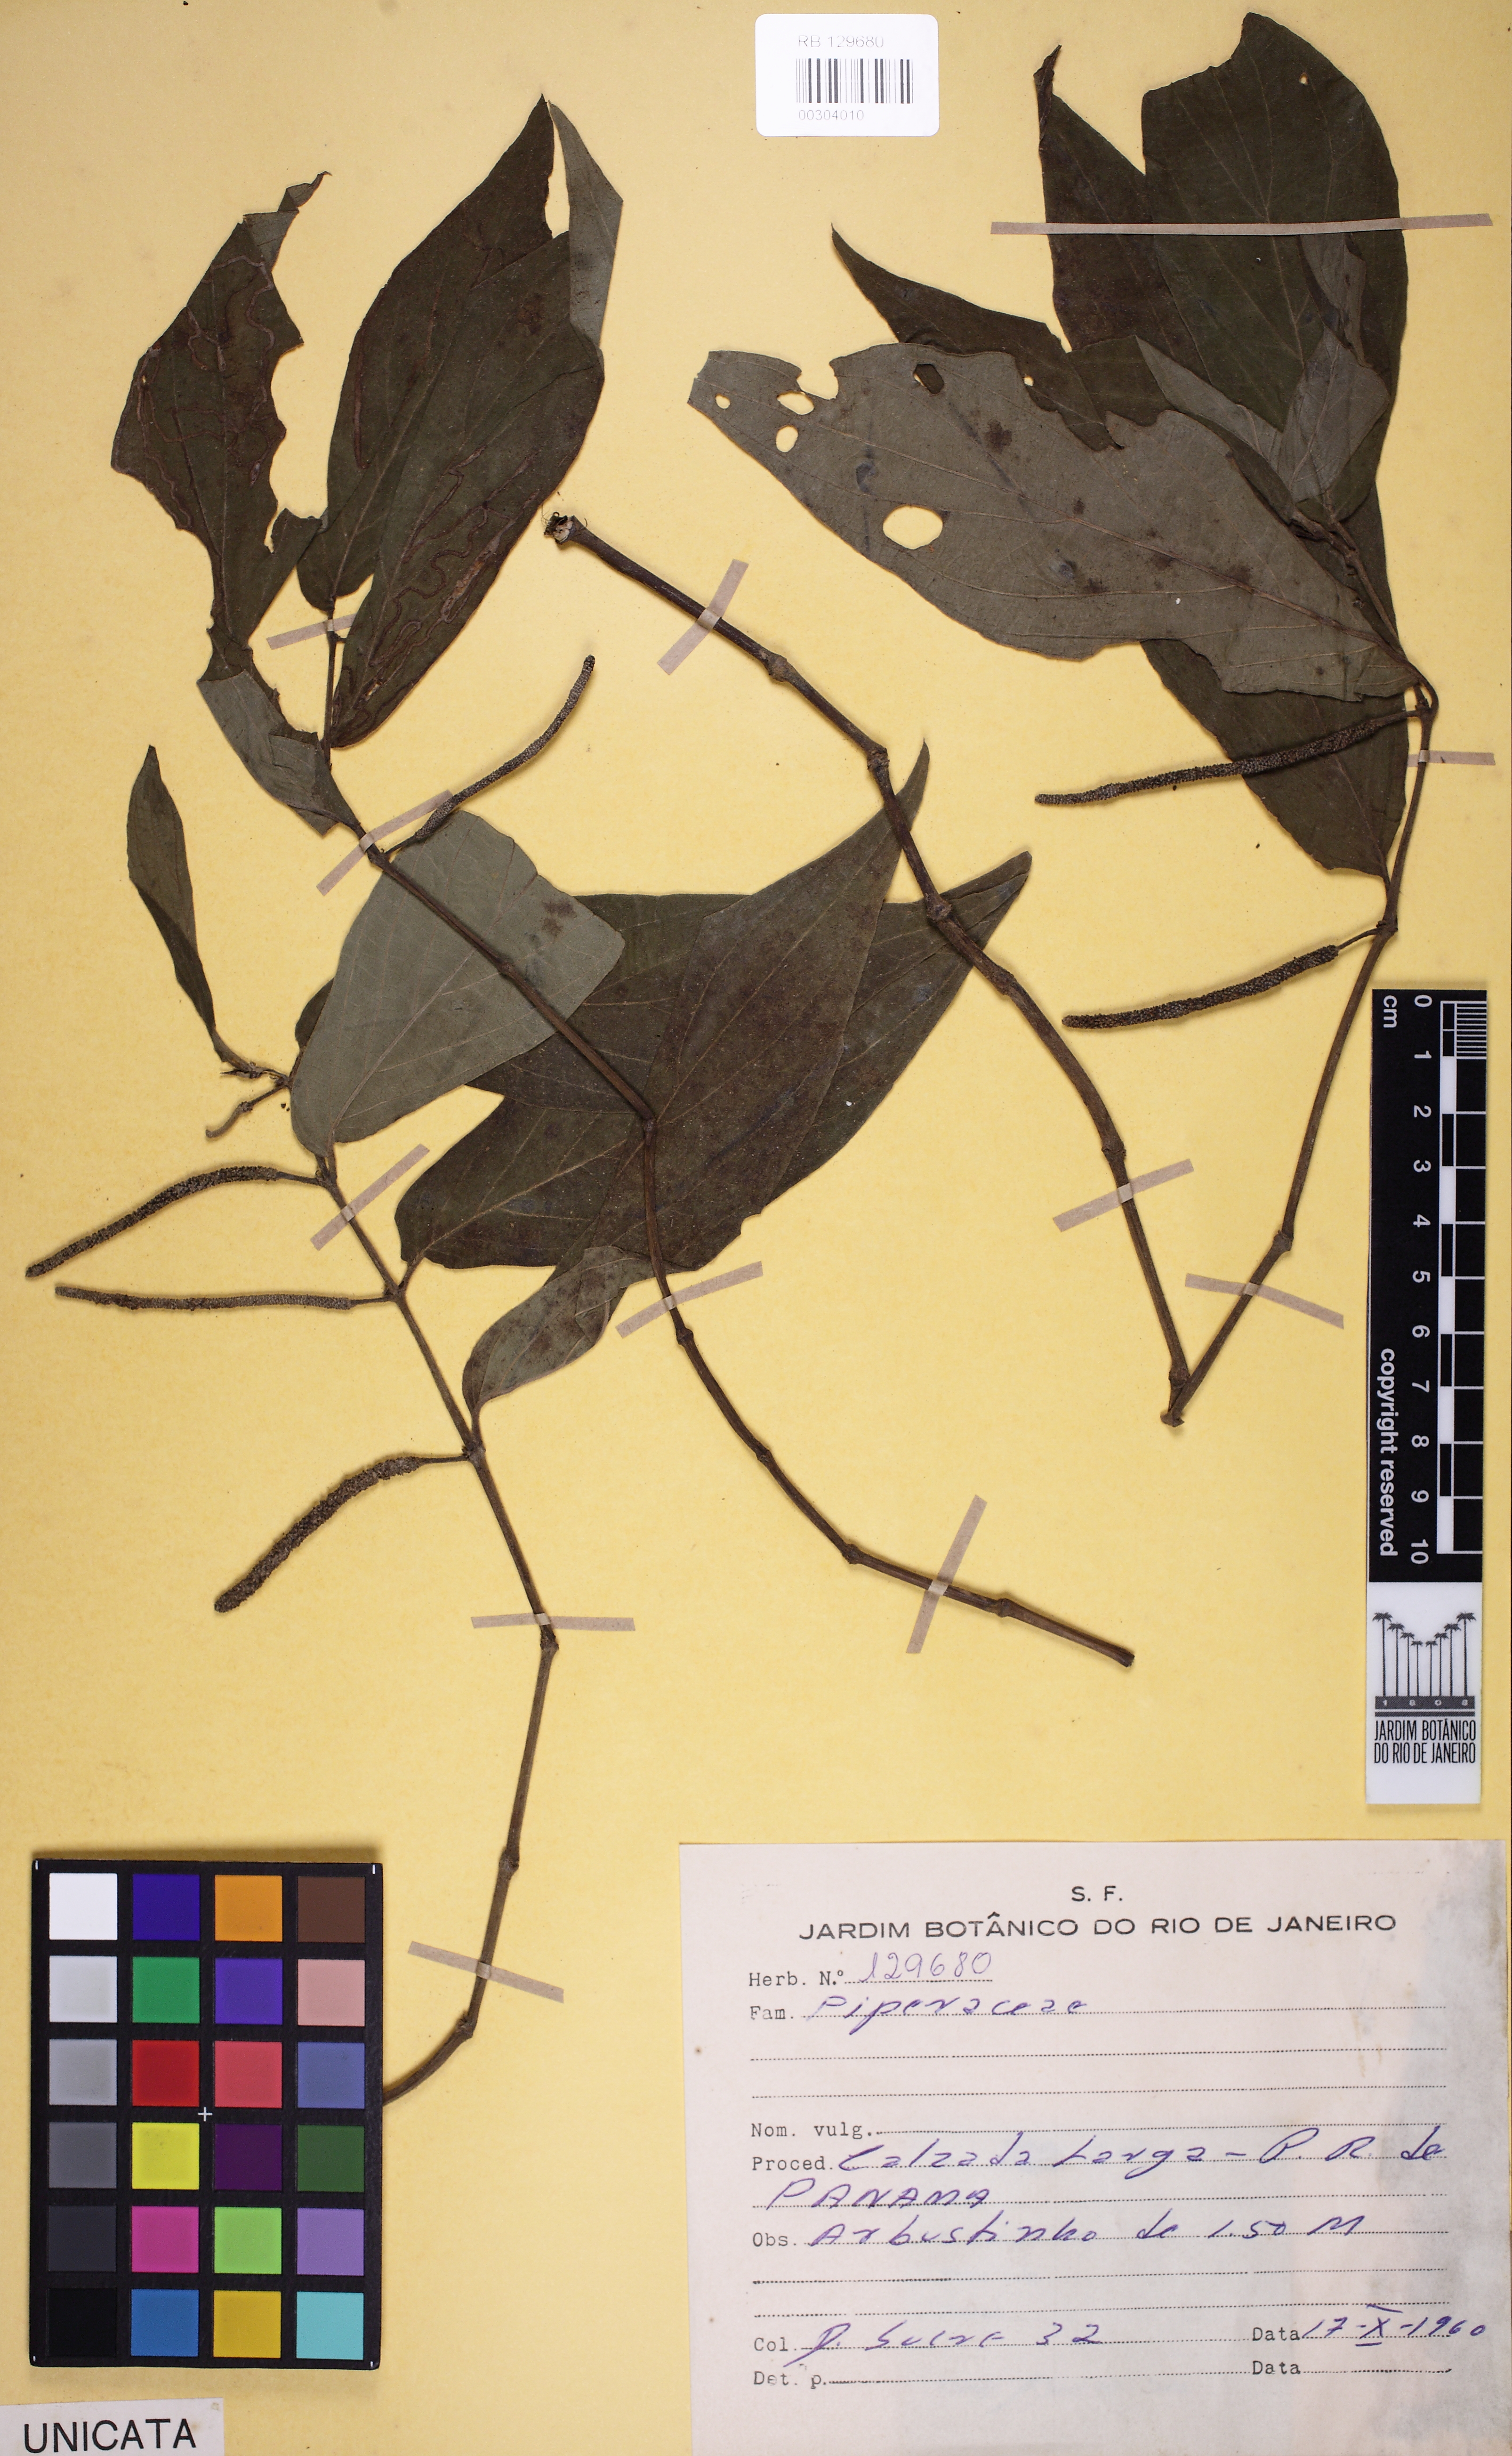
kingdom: Plantae
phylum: Tracheophyta
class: Magnoliopsida
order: Piperales
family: Piperaceae
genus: Piper
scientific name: Piper
